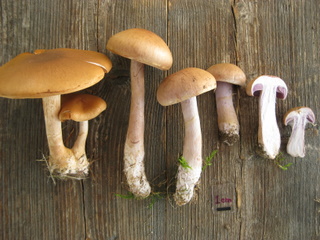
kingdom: Fungi
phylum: Basidiomycota
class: Agaricomycetes
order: Agaricales
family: Cortinariaceae
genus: Cortinarius
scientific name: Cortinarius caninus
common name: gran-slørhat
